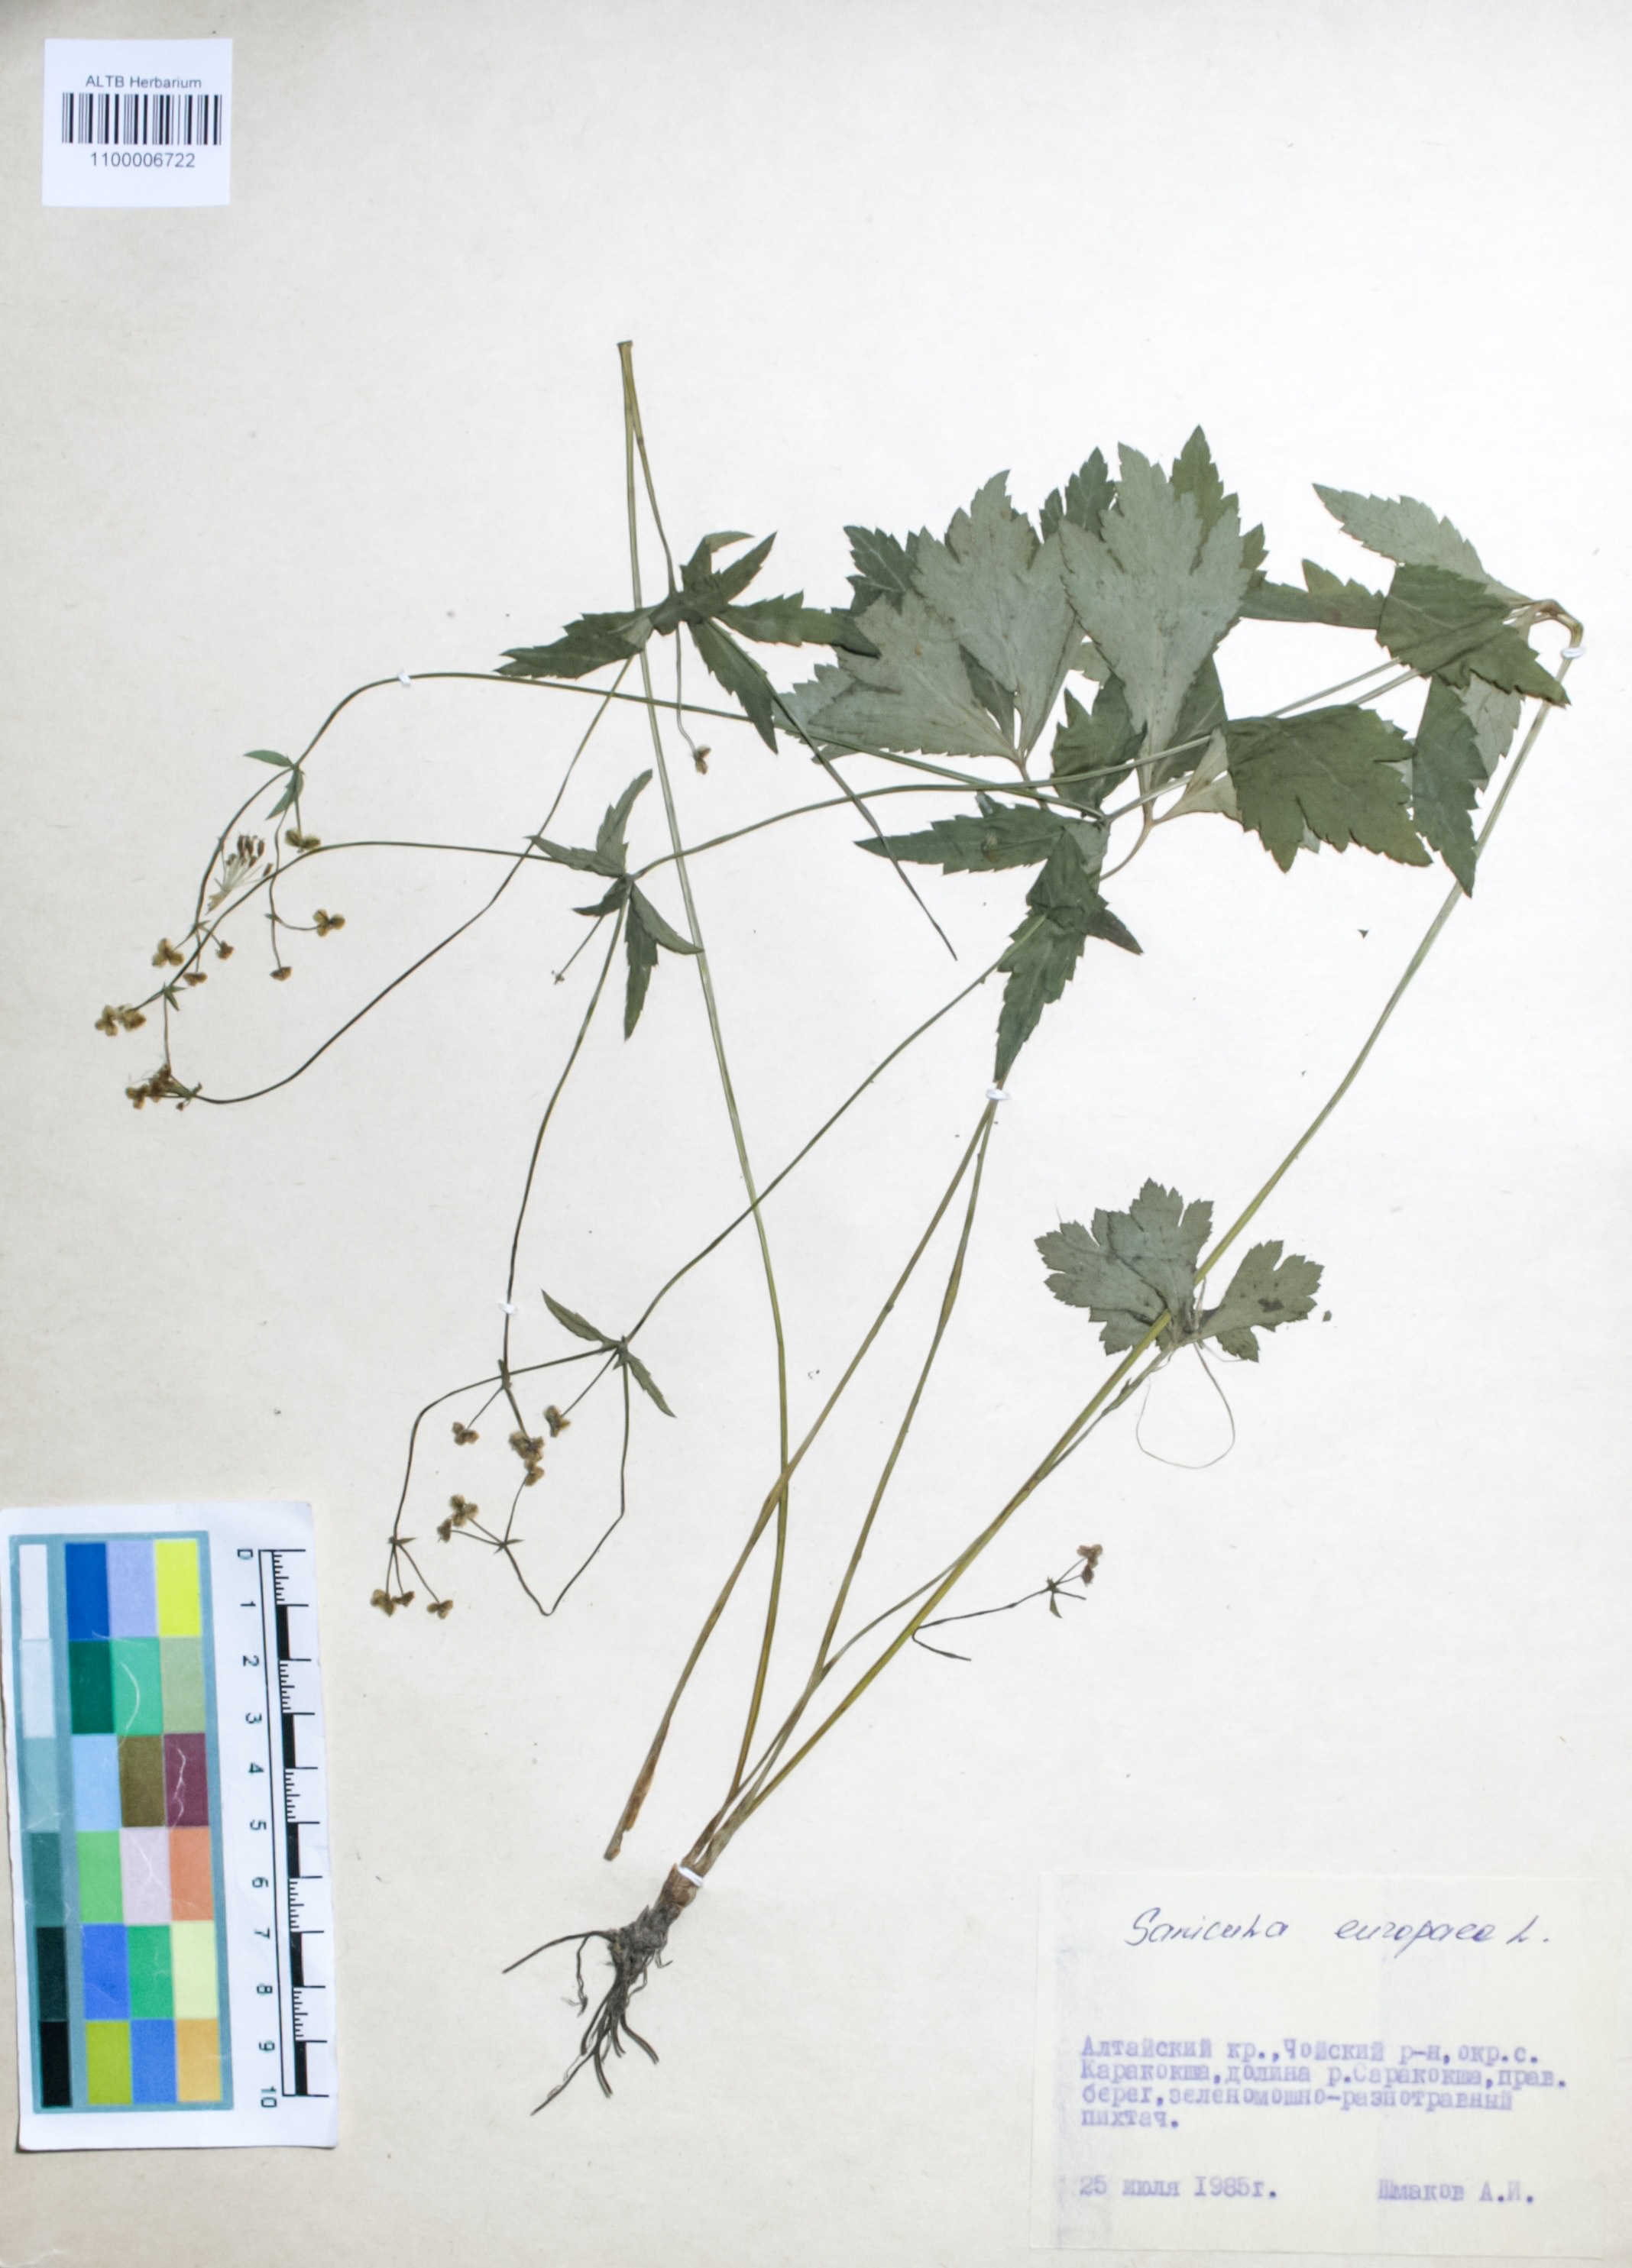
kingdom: Plantae
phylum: Tracheophyta
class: Magnoliopsida
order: Apiales
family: Apiaceae
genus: Sanicula
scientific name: Sanicula europaea
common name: Sanicle
